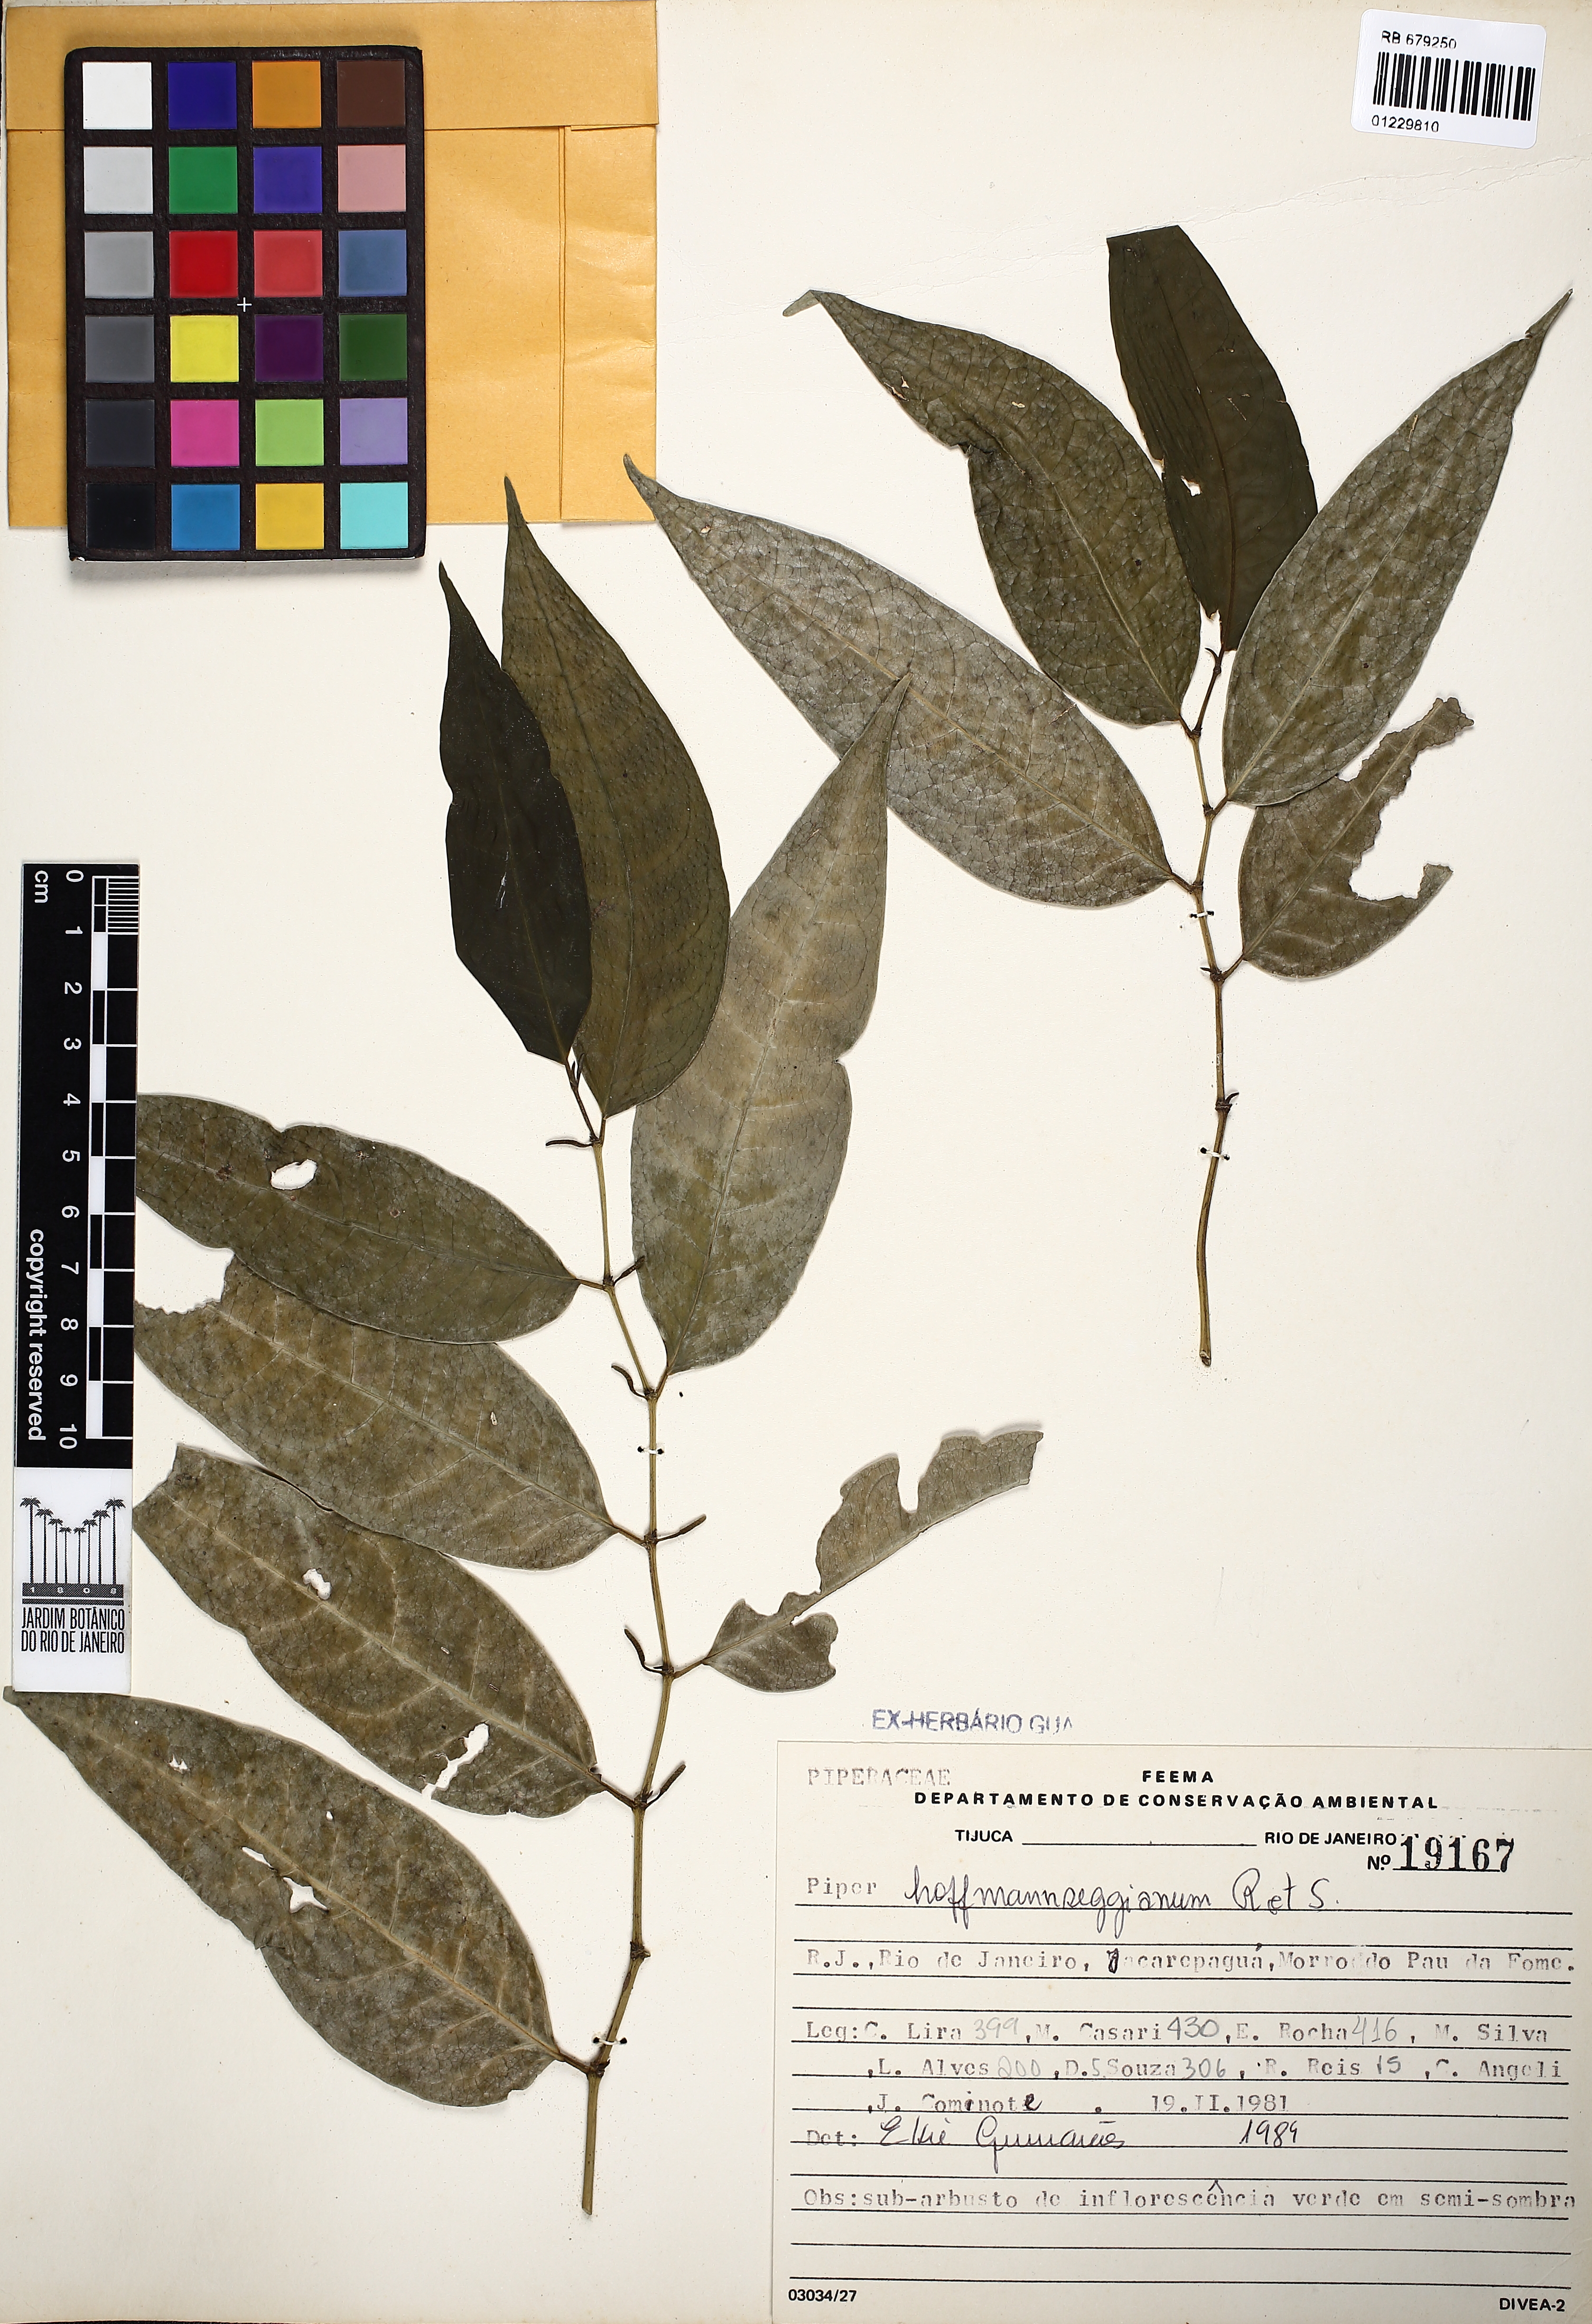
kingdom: Plantae
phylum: Tracheophyta
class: Magnoliopsida
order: Piperales
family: Piperaceae
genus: Piper
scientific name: Piper hoffmannseggianum
